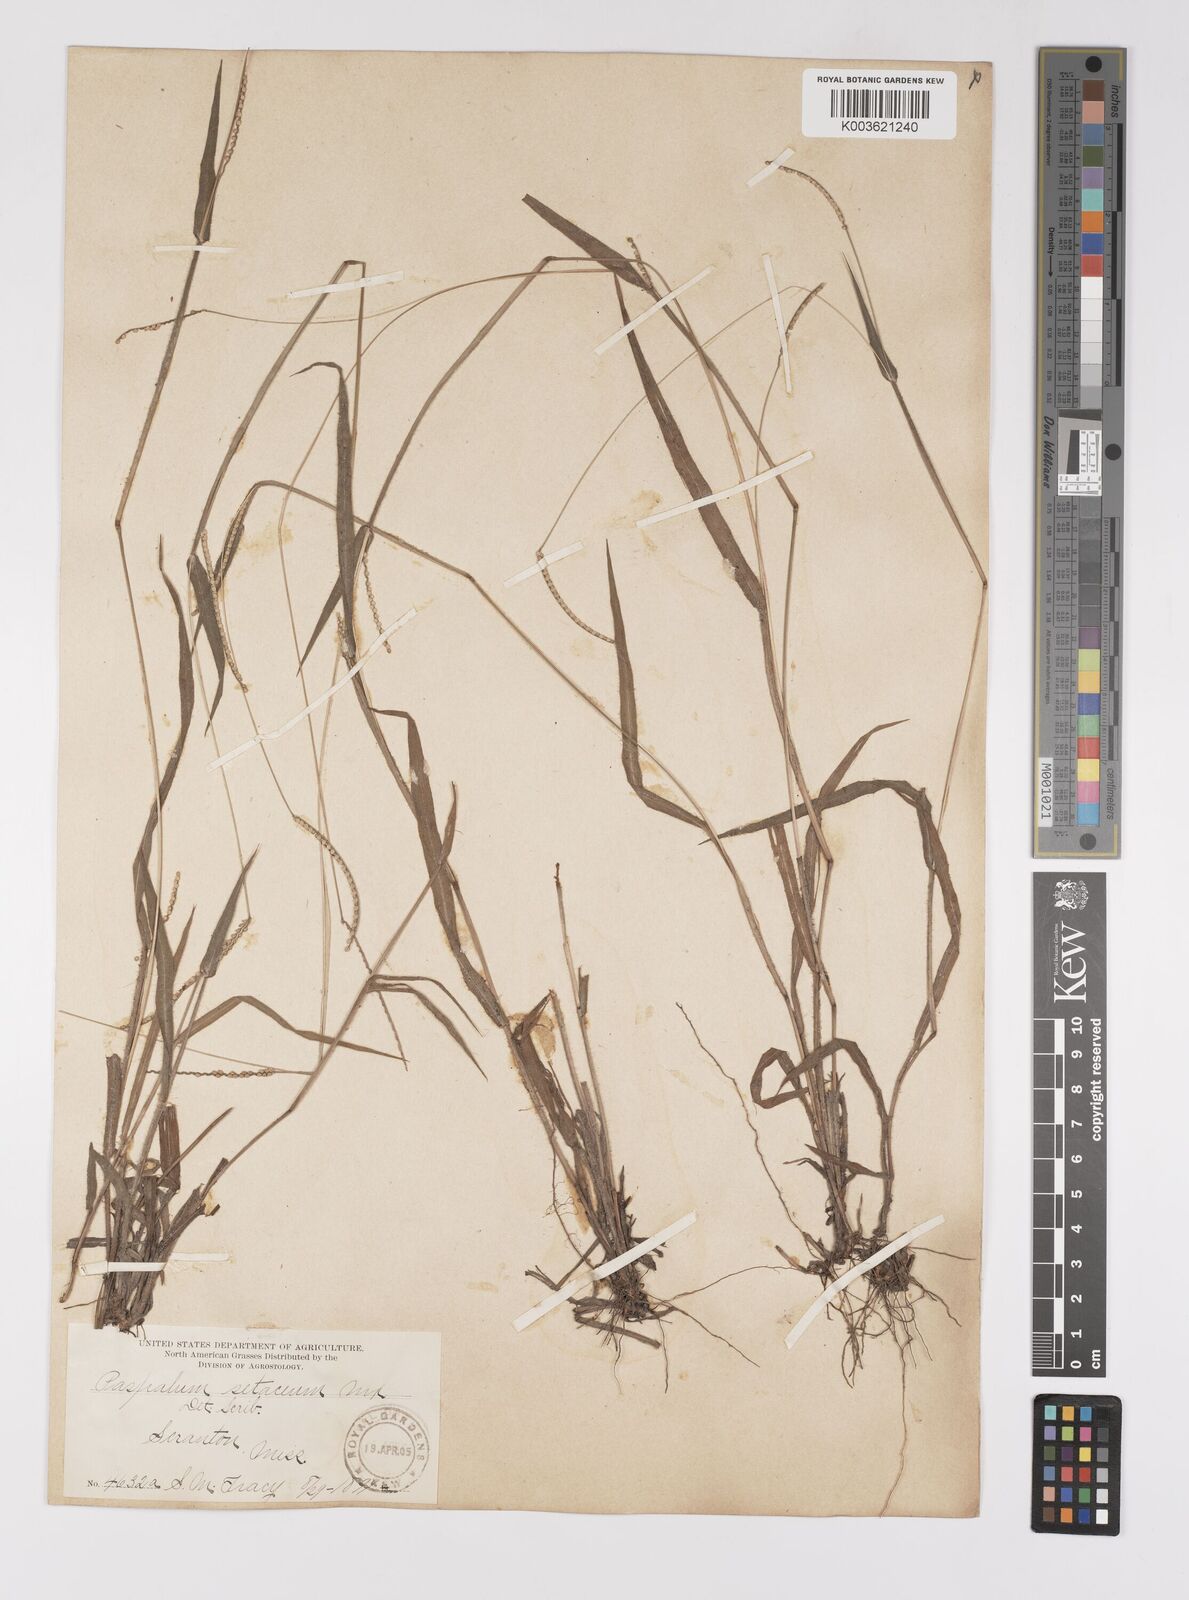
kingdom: Plantae
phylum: Tracheophyta
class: Liliopsida
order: Poales
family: Poaceae
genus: Paspalum
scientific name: Paspalum setaceum
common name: Slender paspalum
